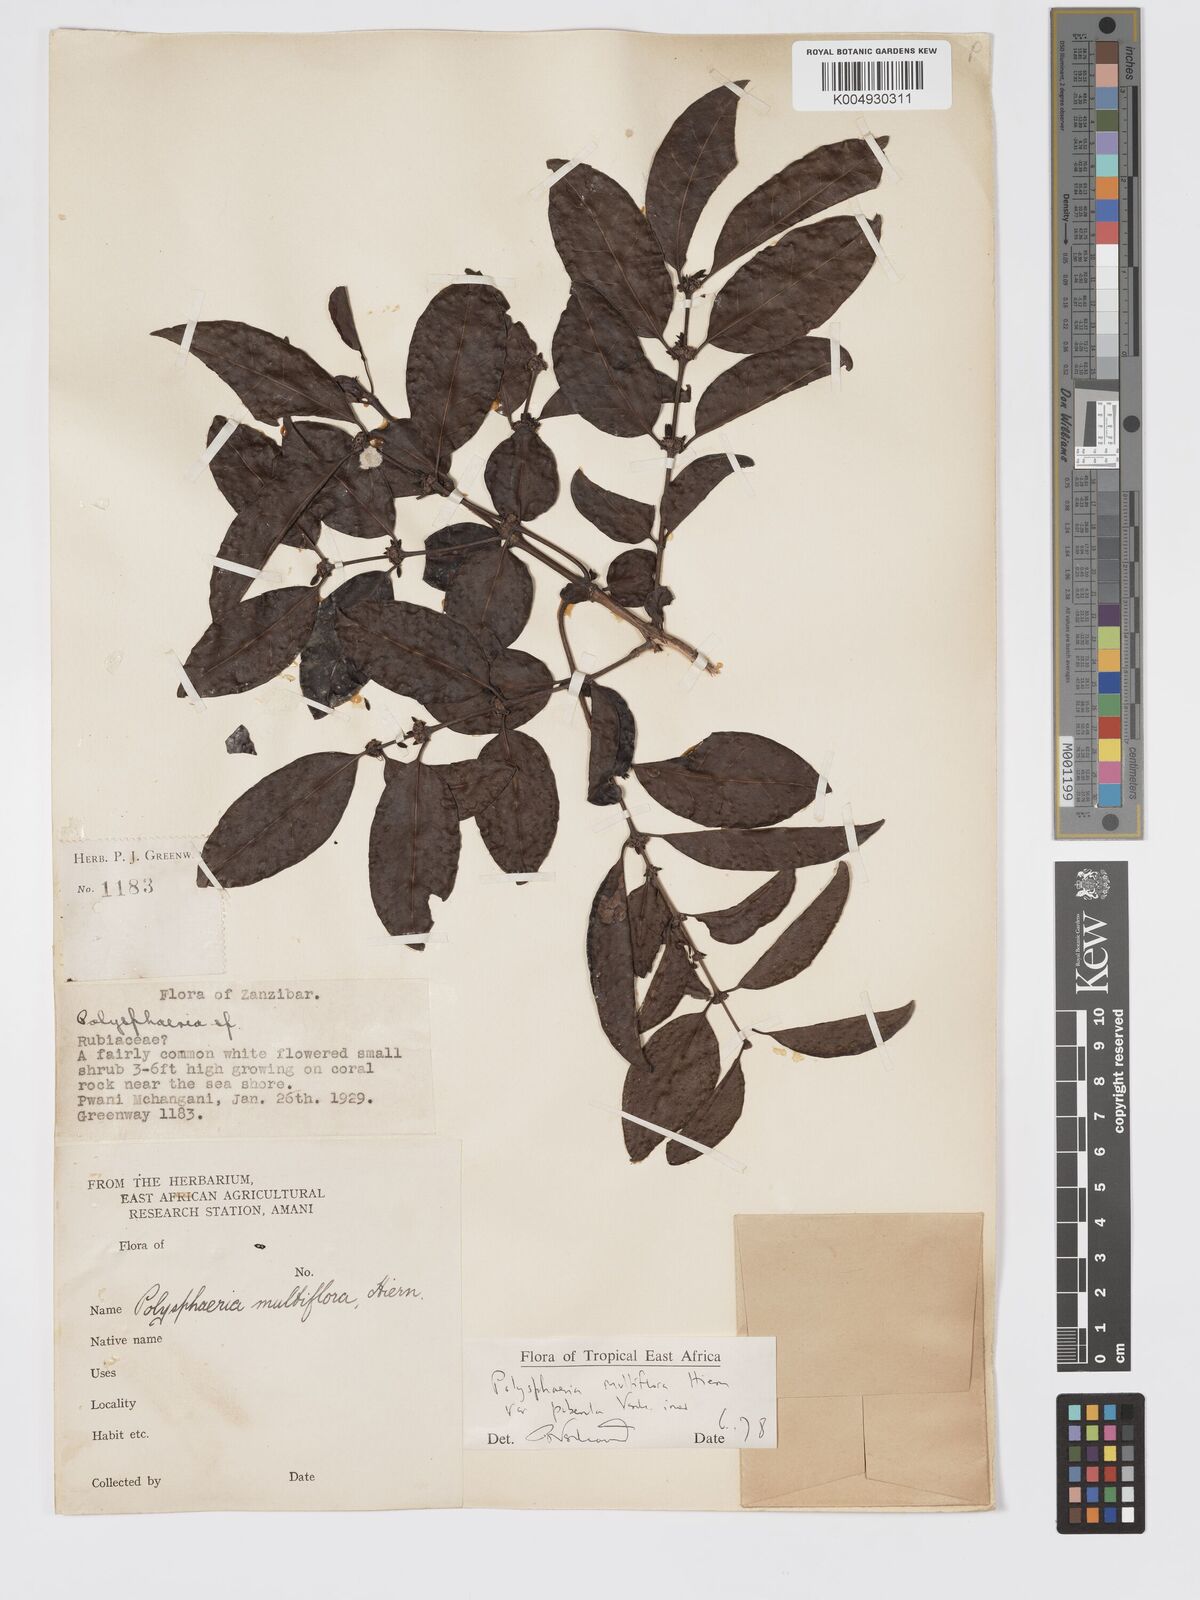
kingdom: Plantae
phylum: Tracheophyta
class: Magnoliopsida
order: Gentianales
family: Rubiaceae
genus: Polysphaeria
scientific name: Polysphaeria multiflora
